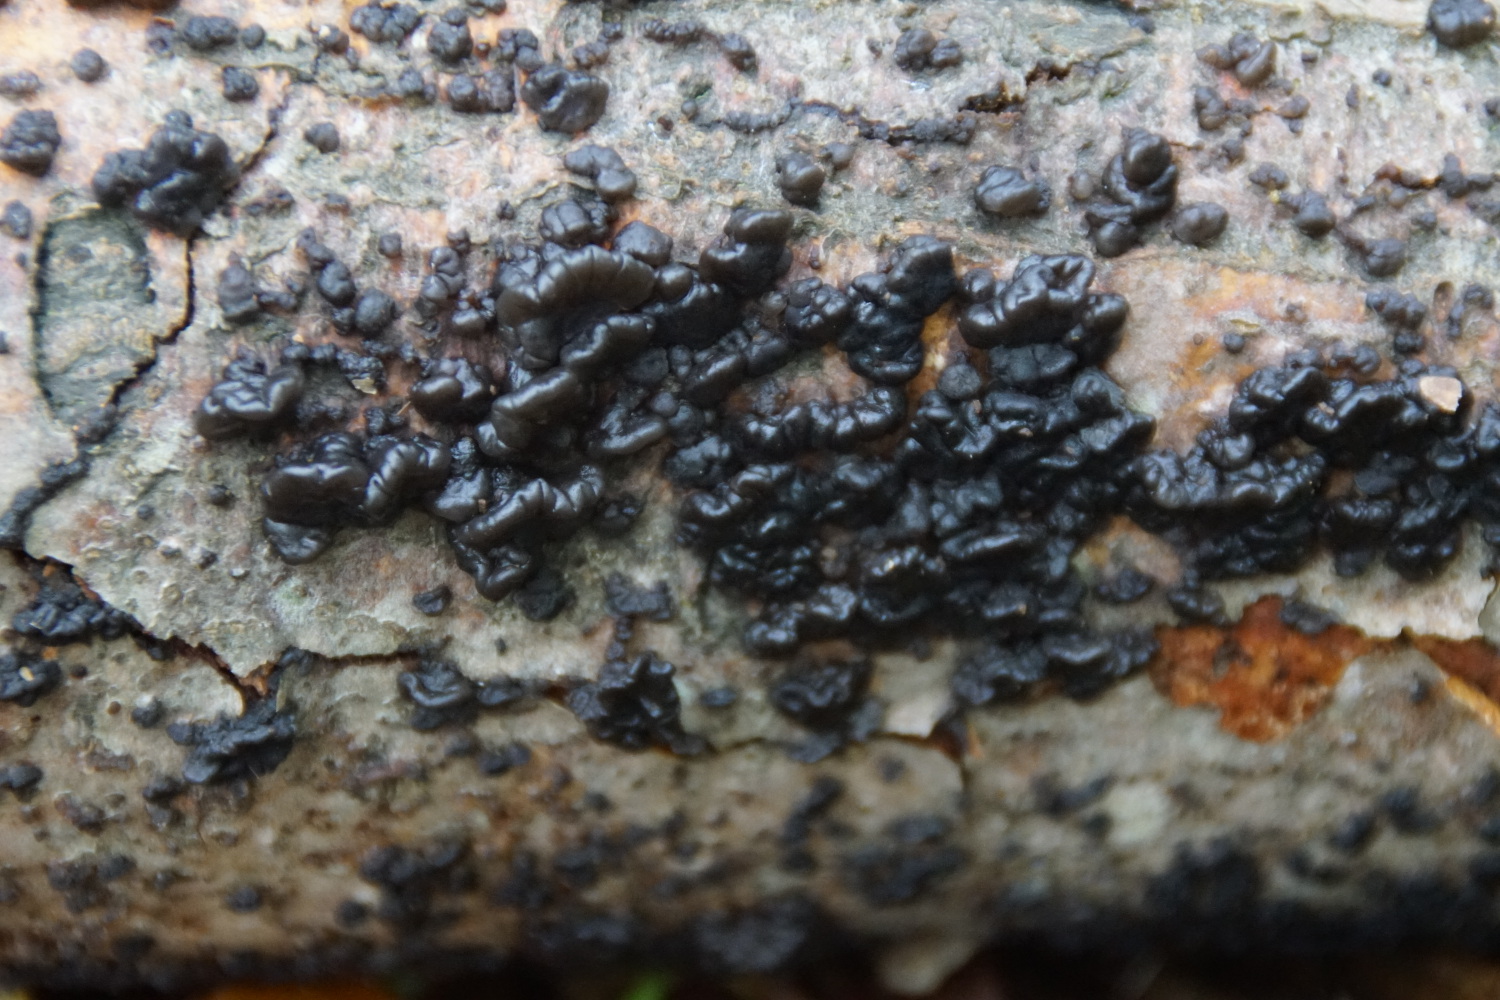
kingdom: Fungi
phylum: Basidiomycota
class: Agaricomycetes
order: Auriculariales
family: Auriculariaceae
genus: Exidia
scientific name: Exidia nigricans
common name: almindelig bævretop
